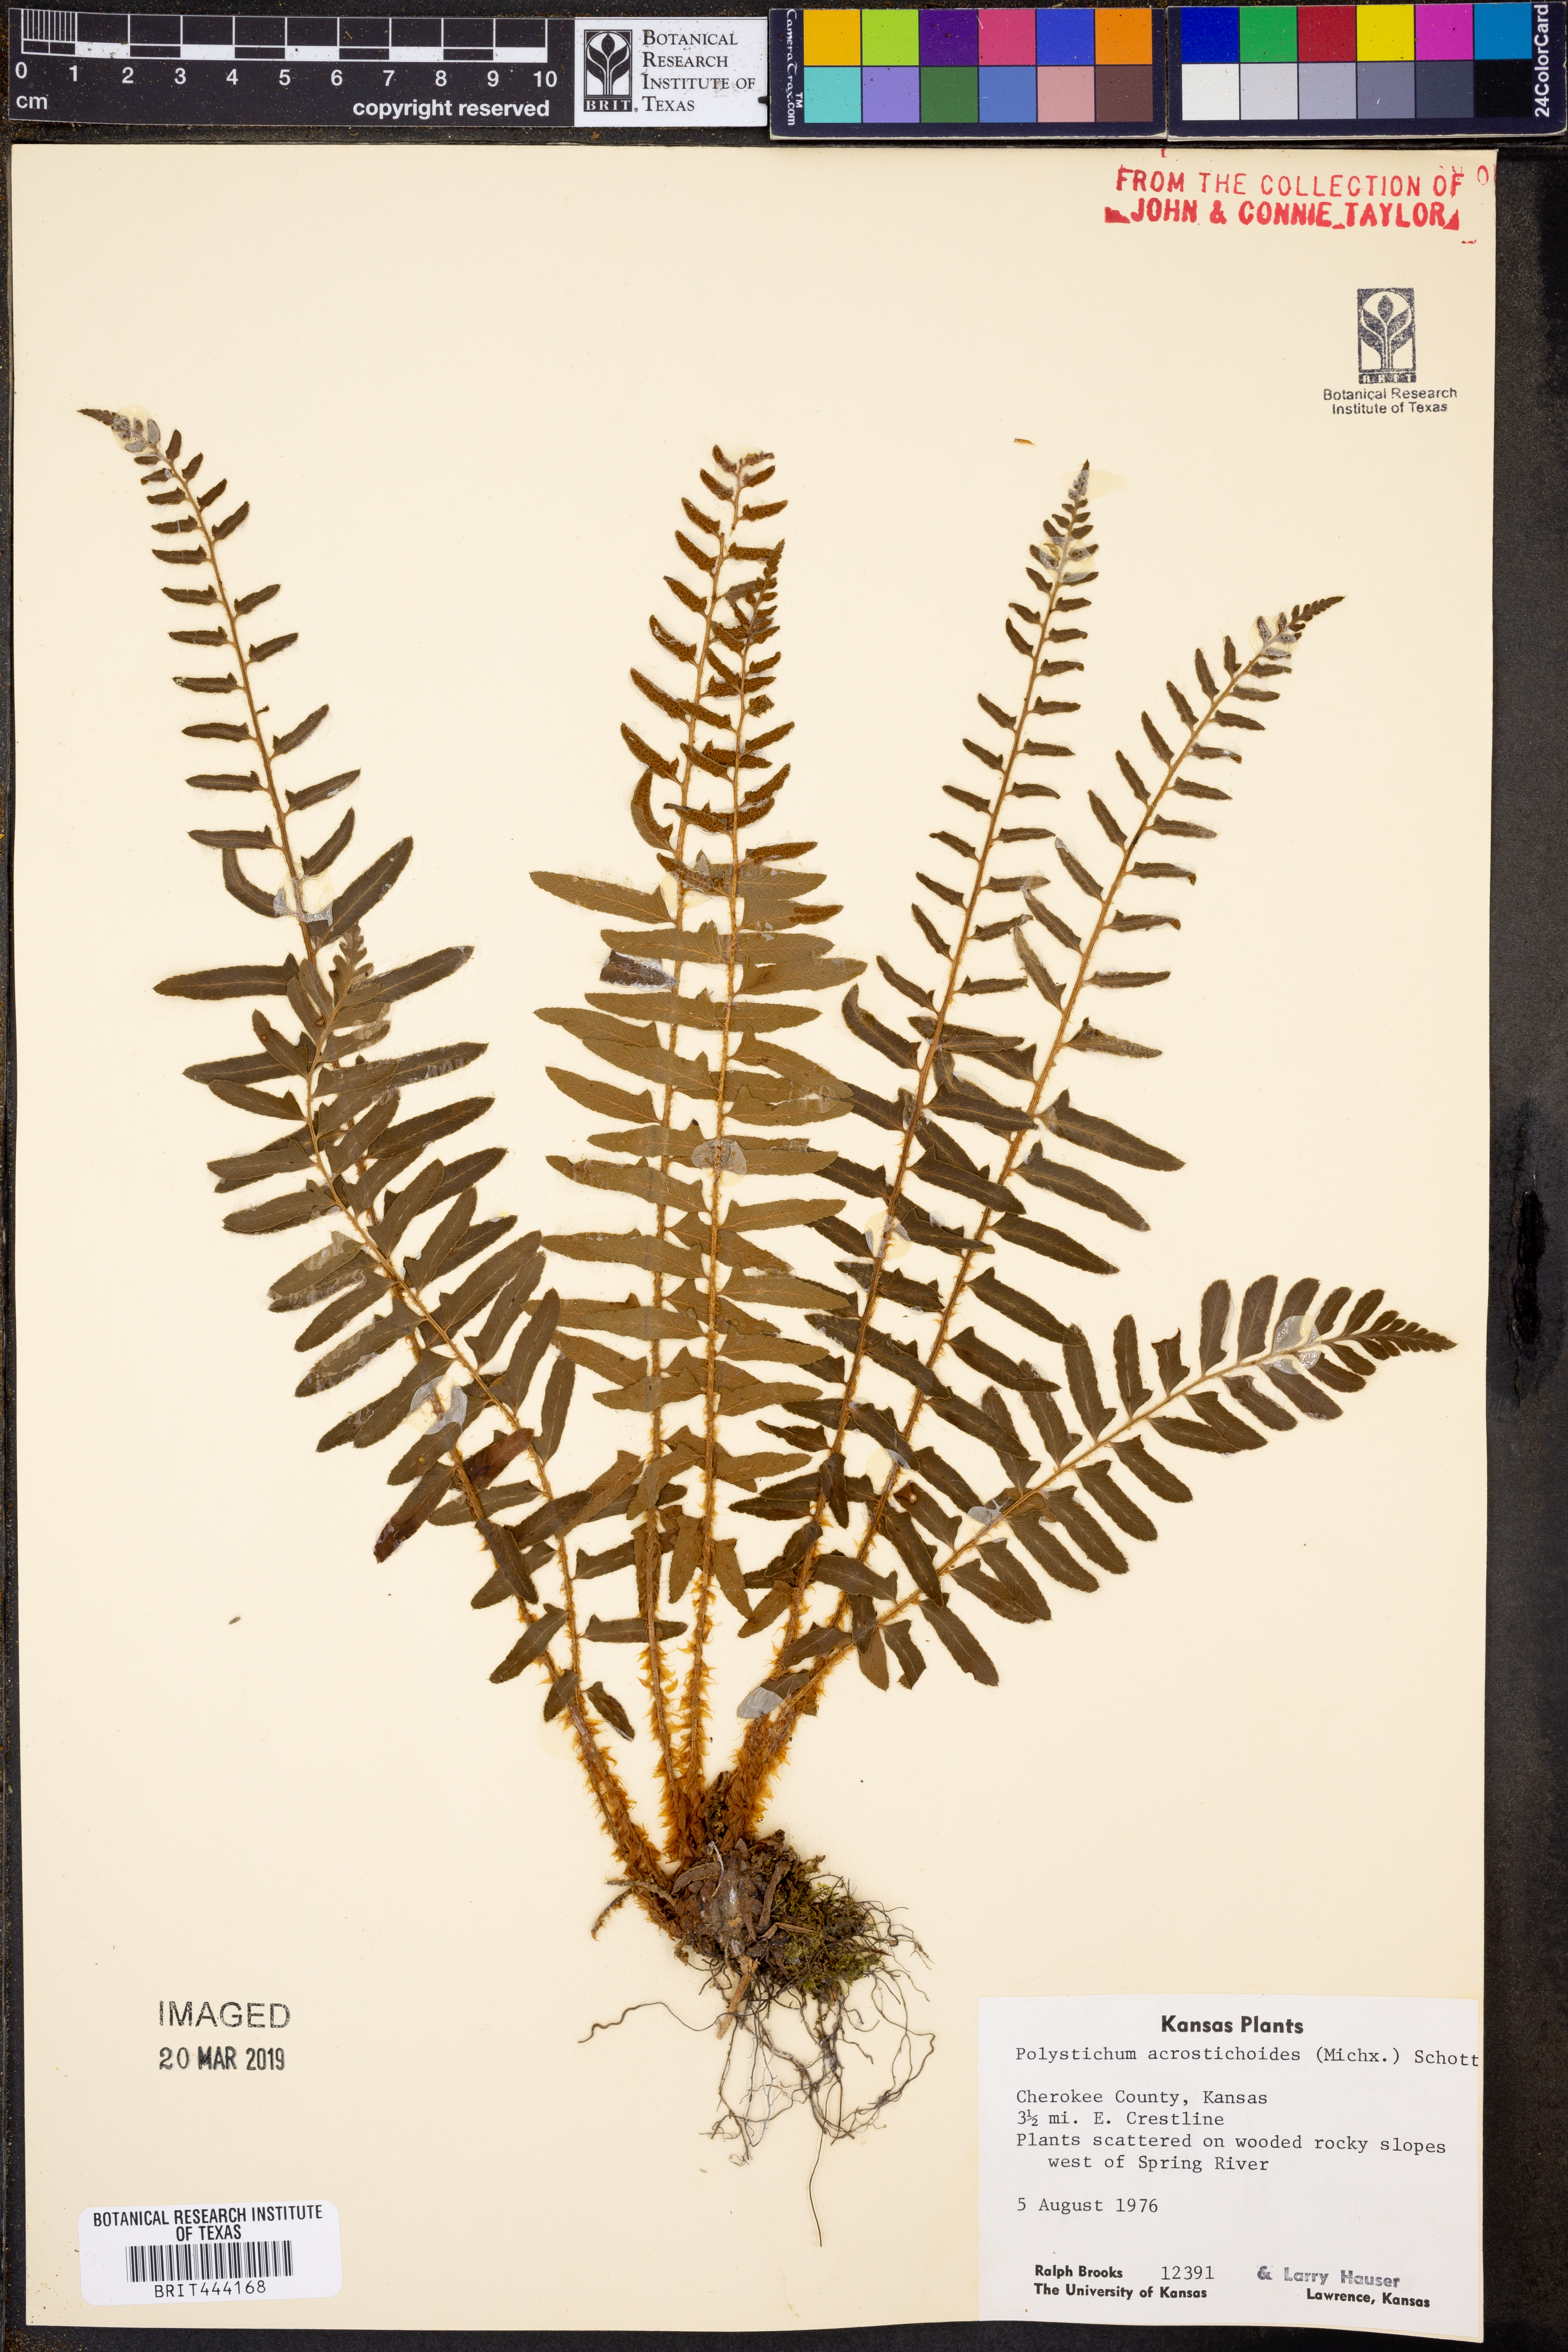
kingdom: Plantae
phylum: Tracheophyta
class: Polypodiopsida
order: Polypodiales
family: Dryopteridaceae
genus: Polystichum
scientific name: Polystichum acrostichoides
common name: Christmas fern
